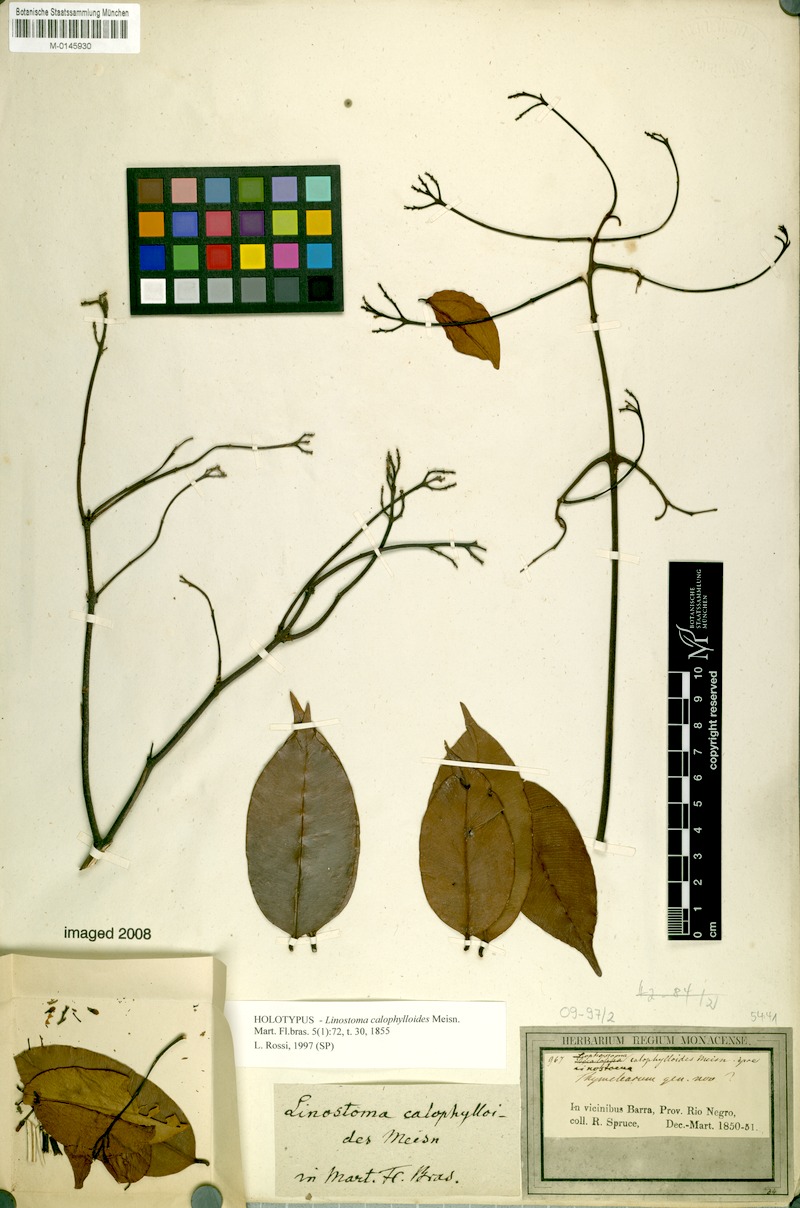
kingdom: Plantae
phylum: Tracheophyta
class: Magnoliopsida
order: Malvales
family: Thymelaeaceae
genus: Lophostoma
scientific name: Lophostoma calophylloides
